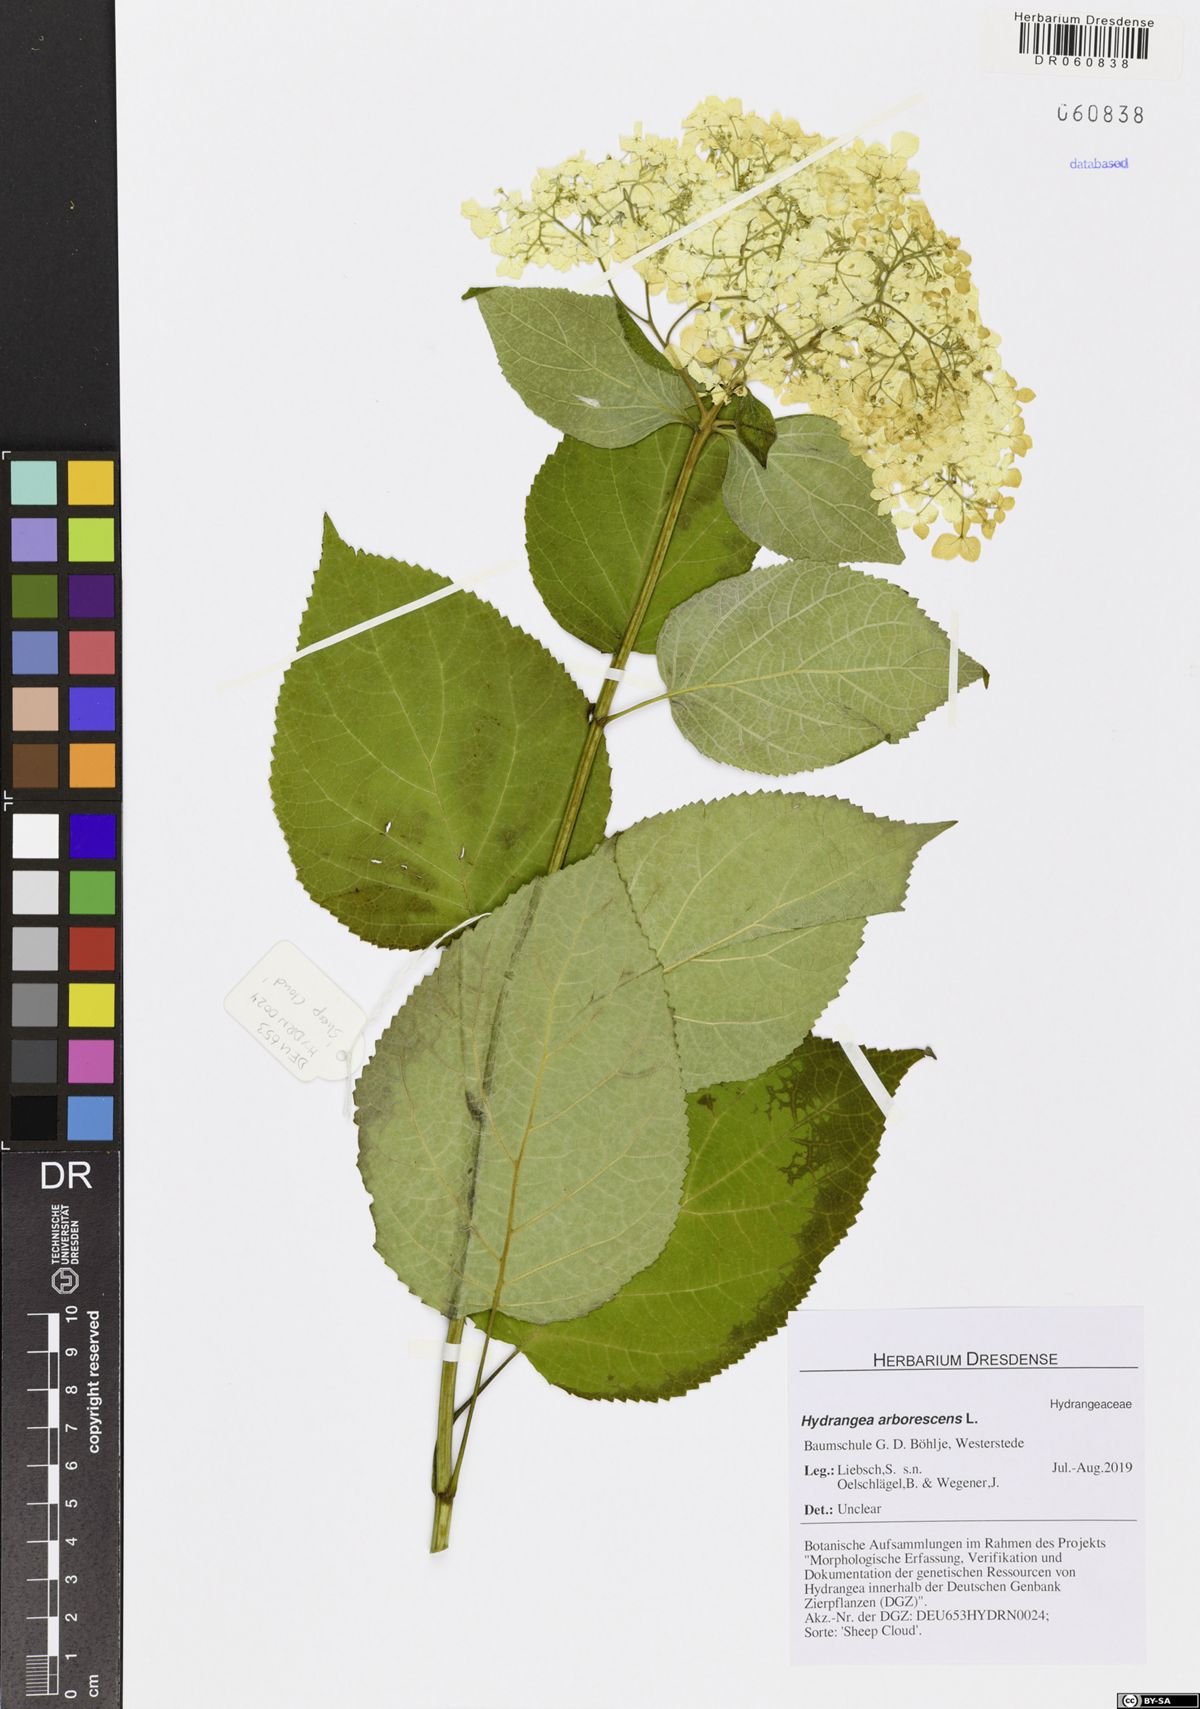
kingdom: Plantae
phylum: Tracheophyta
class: Magnoliopsida
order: Cornales
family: Hydrangeaceae
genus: Hydrangea
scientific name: Hydrangea arborescens
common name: Sevenbark
